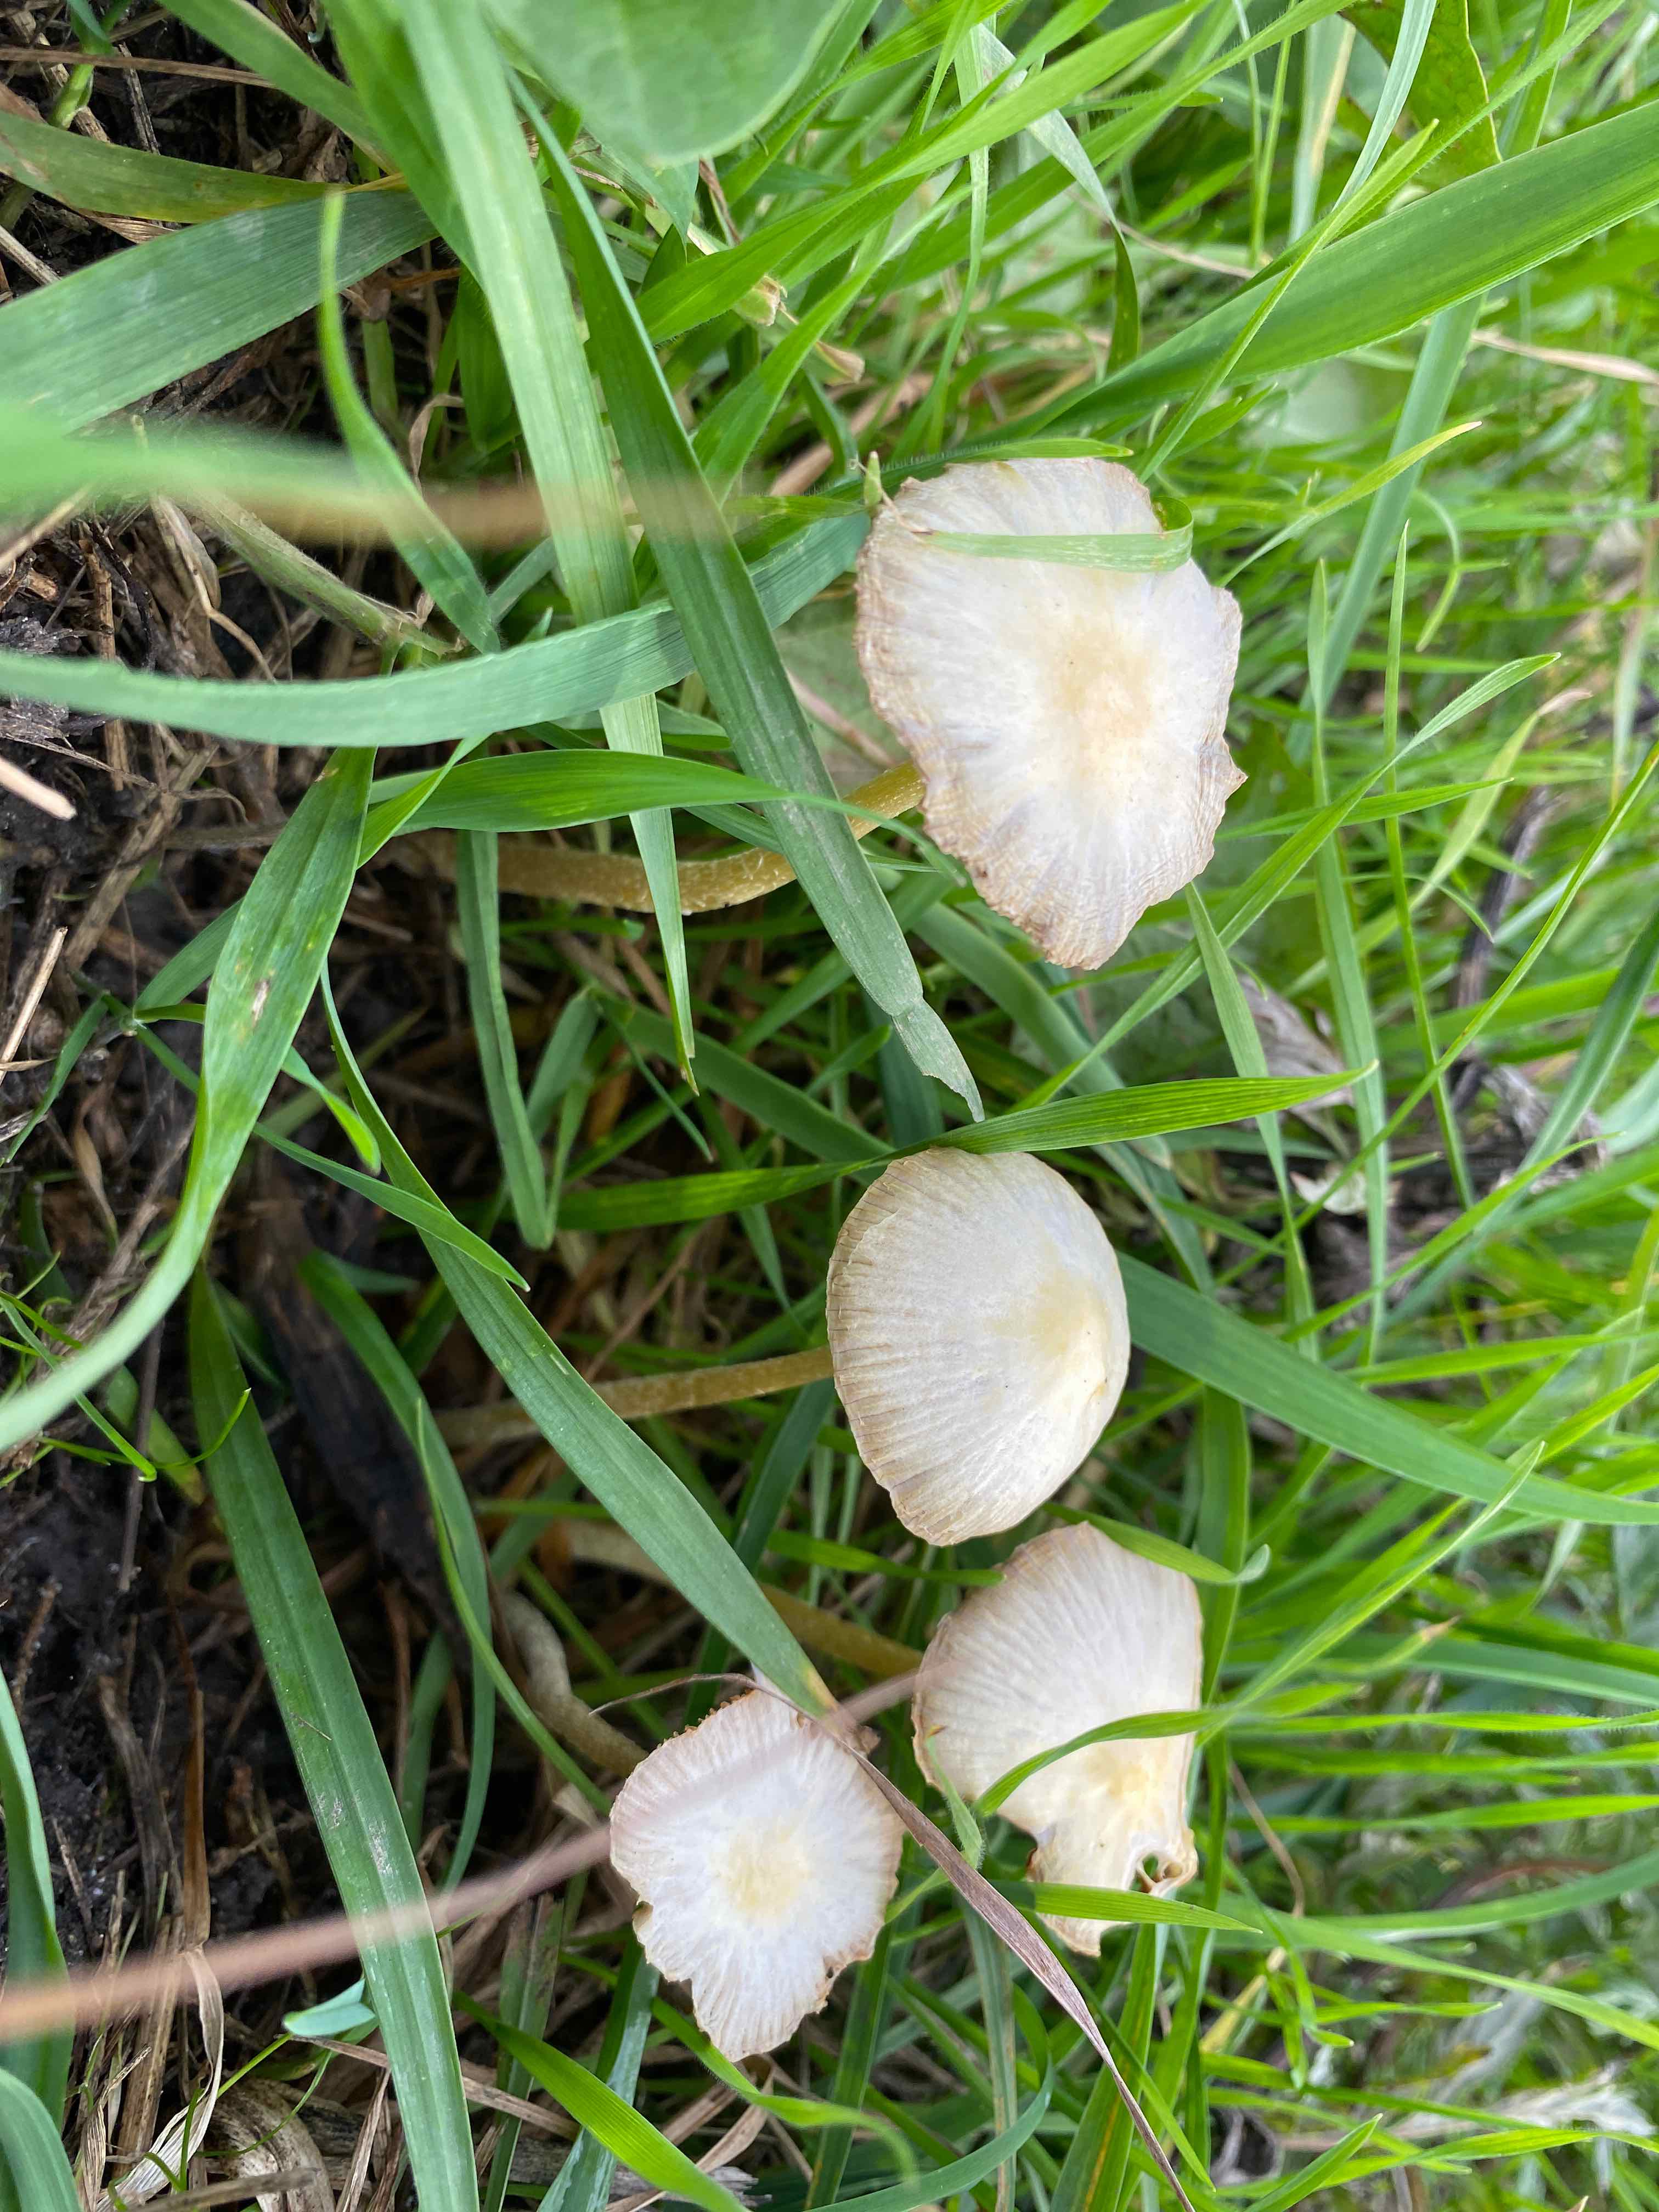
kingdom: Fungi
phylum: Basidiomycota
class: Agaricomycetes
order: Agaricales
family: Bolbitiaceae
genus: Bolbitius
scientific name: Bolbitius titubans
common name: almindelig gulhat
